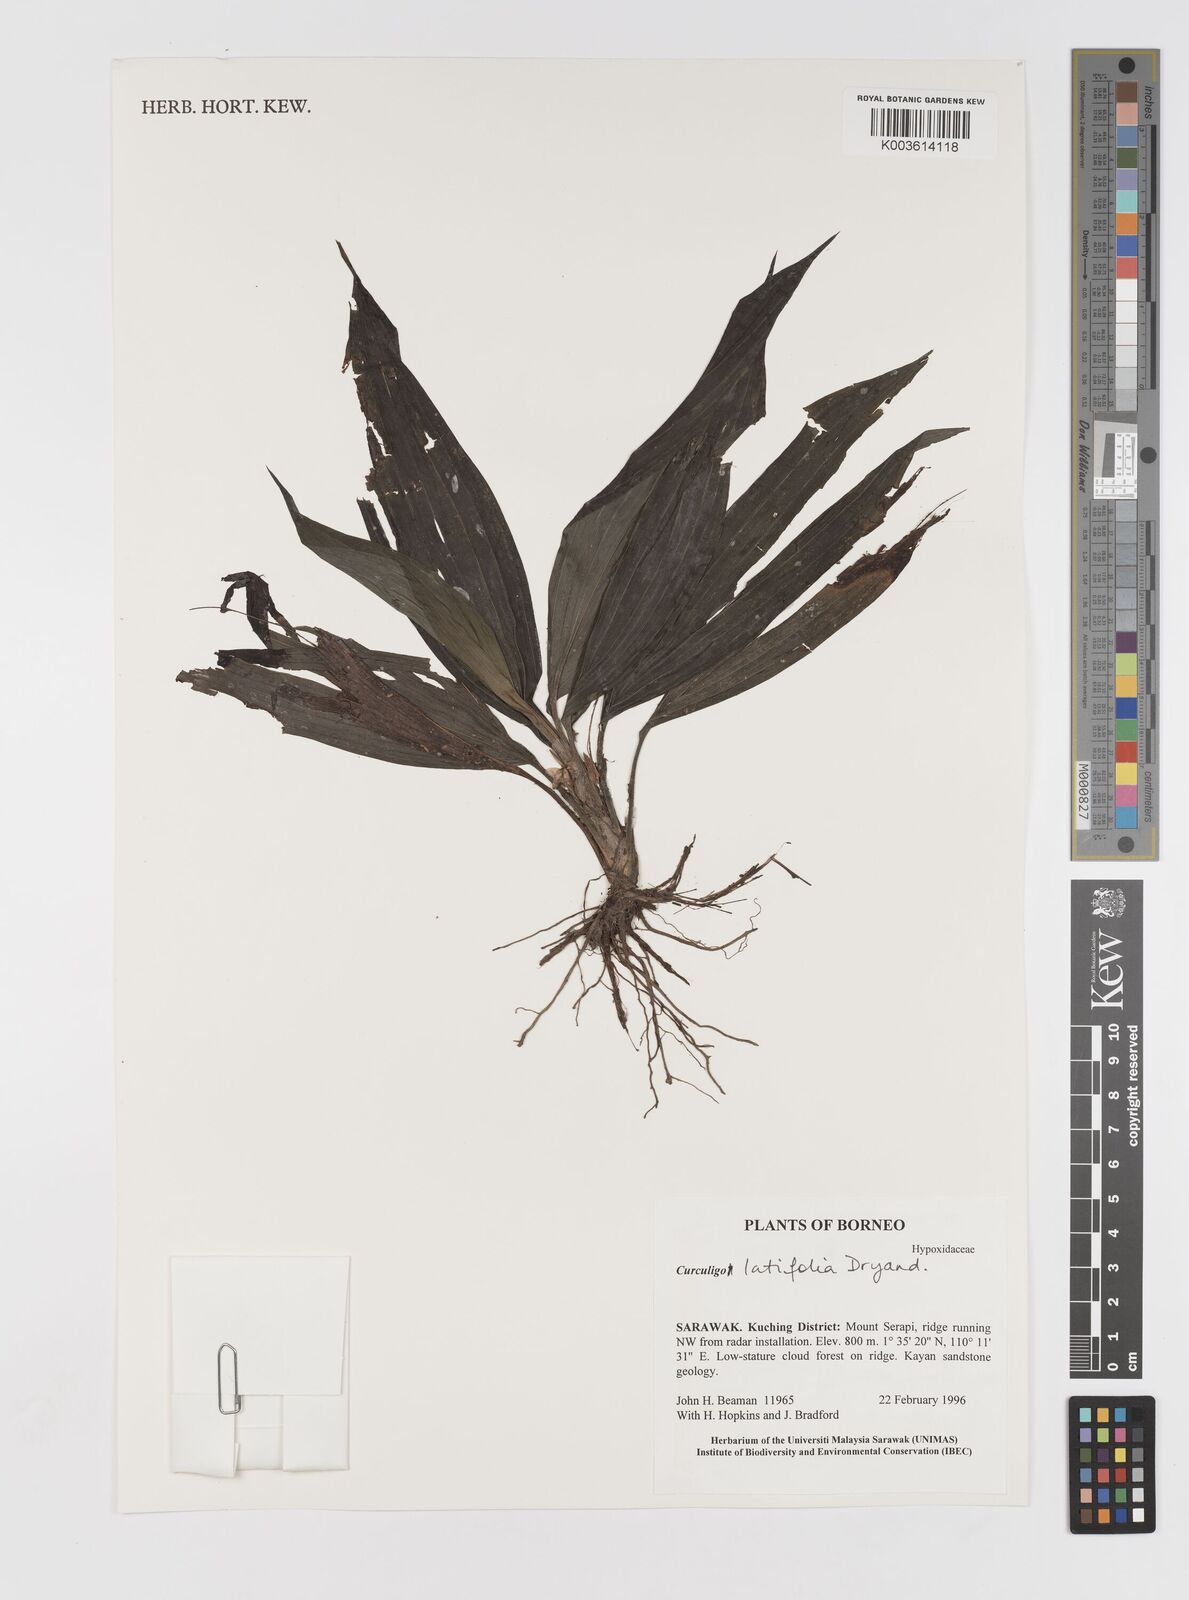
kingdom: Plantae
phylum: Tracheophyta
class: Liliopsida
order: Asparagales
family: Hypoxidaceae
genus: Curculigo
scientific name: Curculigo latifolia
